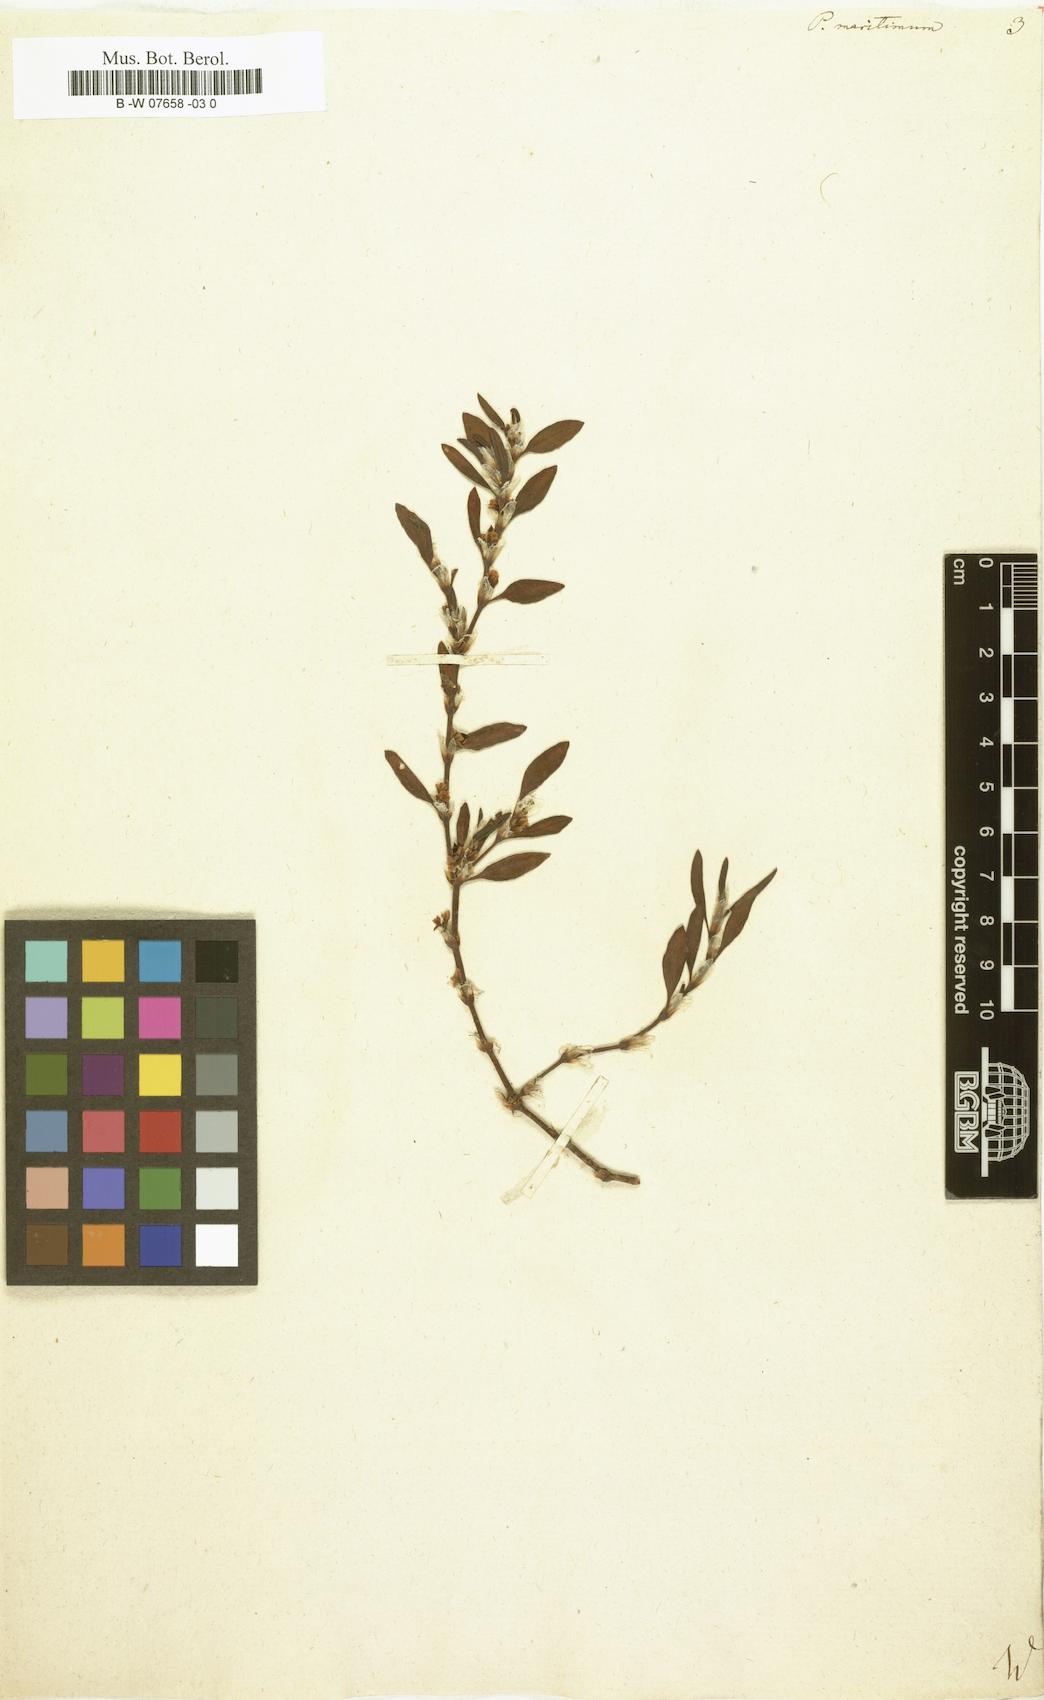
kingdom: Plantae
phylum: Tracheophyta
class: Magnoliopsida
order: Caryophyllales
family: Polygonaceae
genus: Polygonum
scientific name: Polygonum maritimum
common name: Sea knotgrass
